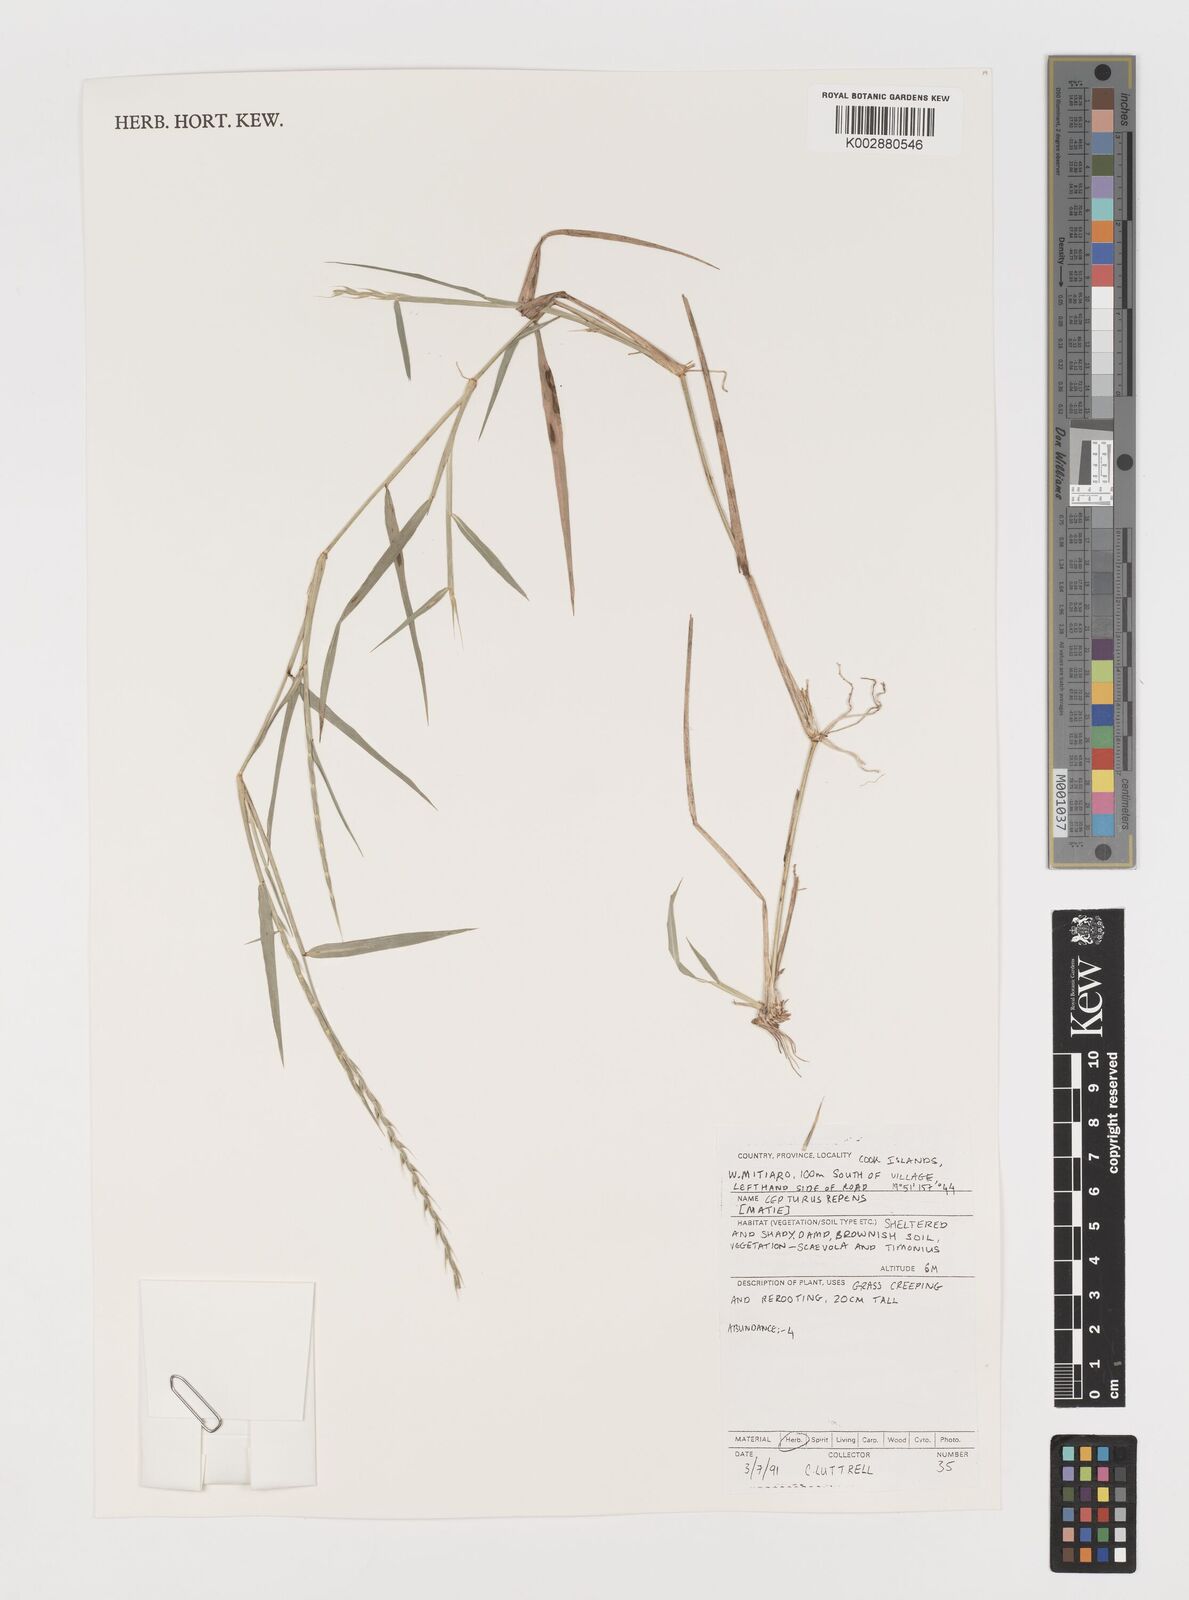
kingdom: Plantae
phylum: Tracheophyta
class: Liliopsida
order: Poales
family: Poaceae
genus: Lepturus
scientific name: Lepturus repens
